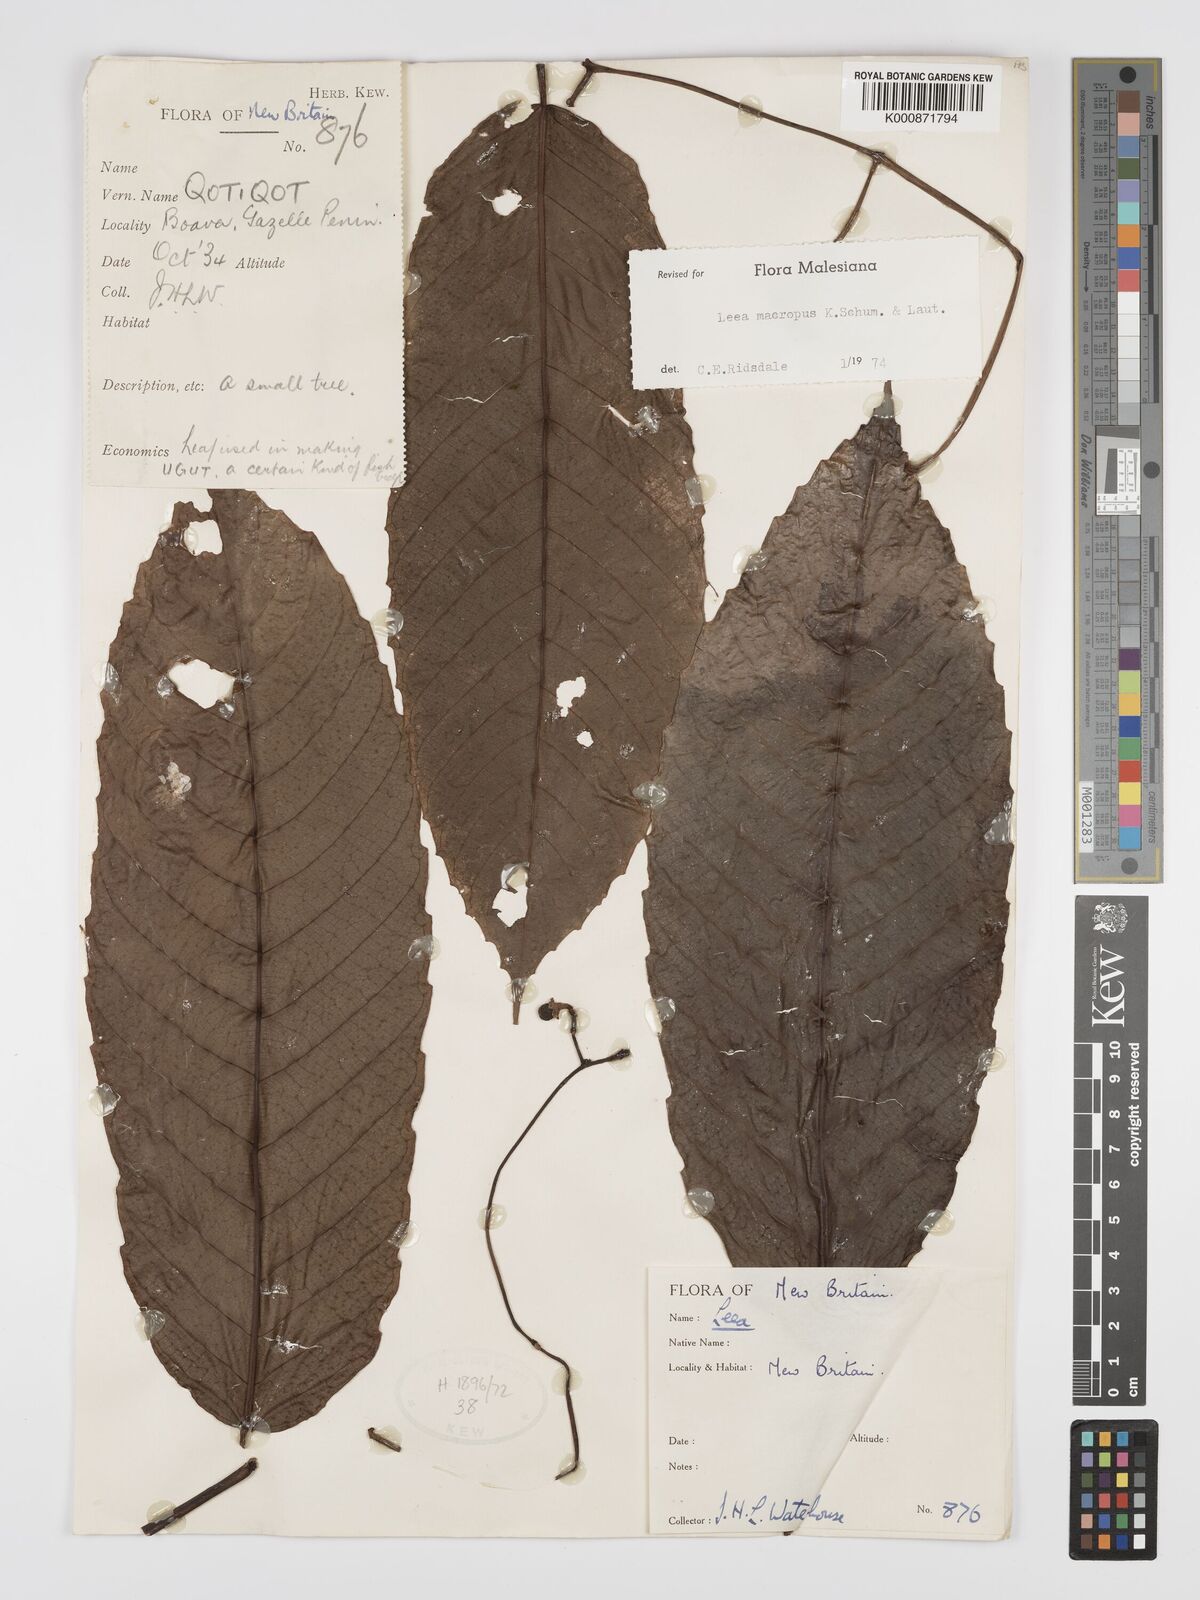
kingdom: Plantae
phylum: Tracheophyta
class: Magnoliopsida
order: Vitales
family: Vitaceae
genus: Leea
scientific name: Leea macropus
